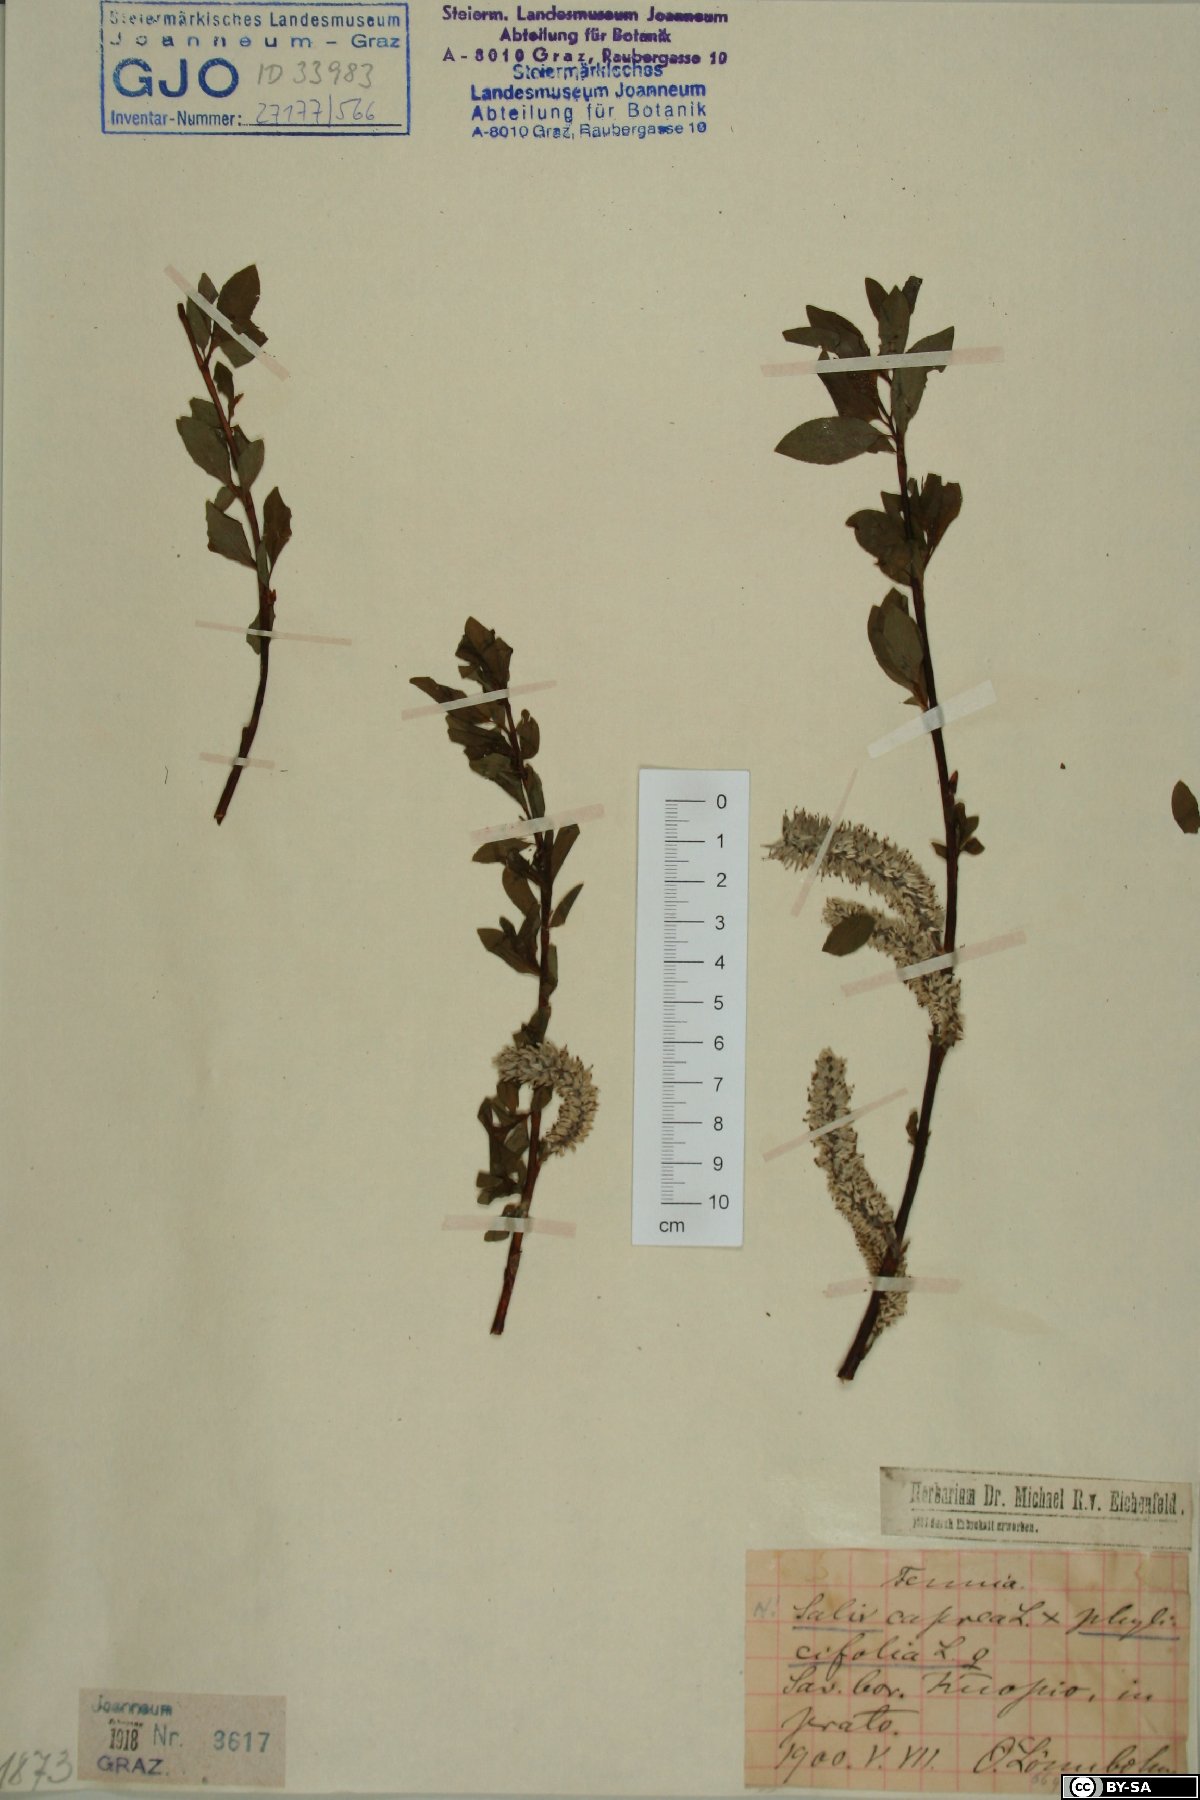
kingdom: Plantae
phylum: Tracheophyta
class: Magnoliopsida
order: Malpighiales
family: Salicaceae
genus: Salix
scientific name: Salix phylicifolia
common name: Tea-leaved willow
